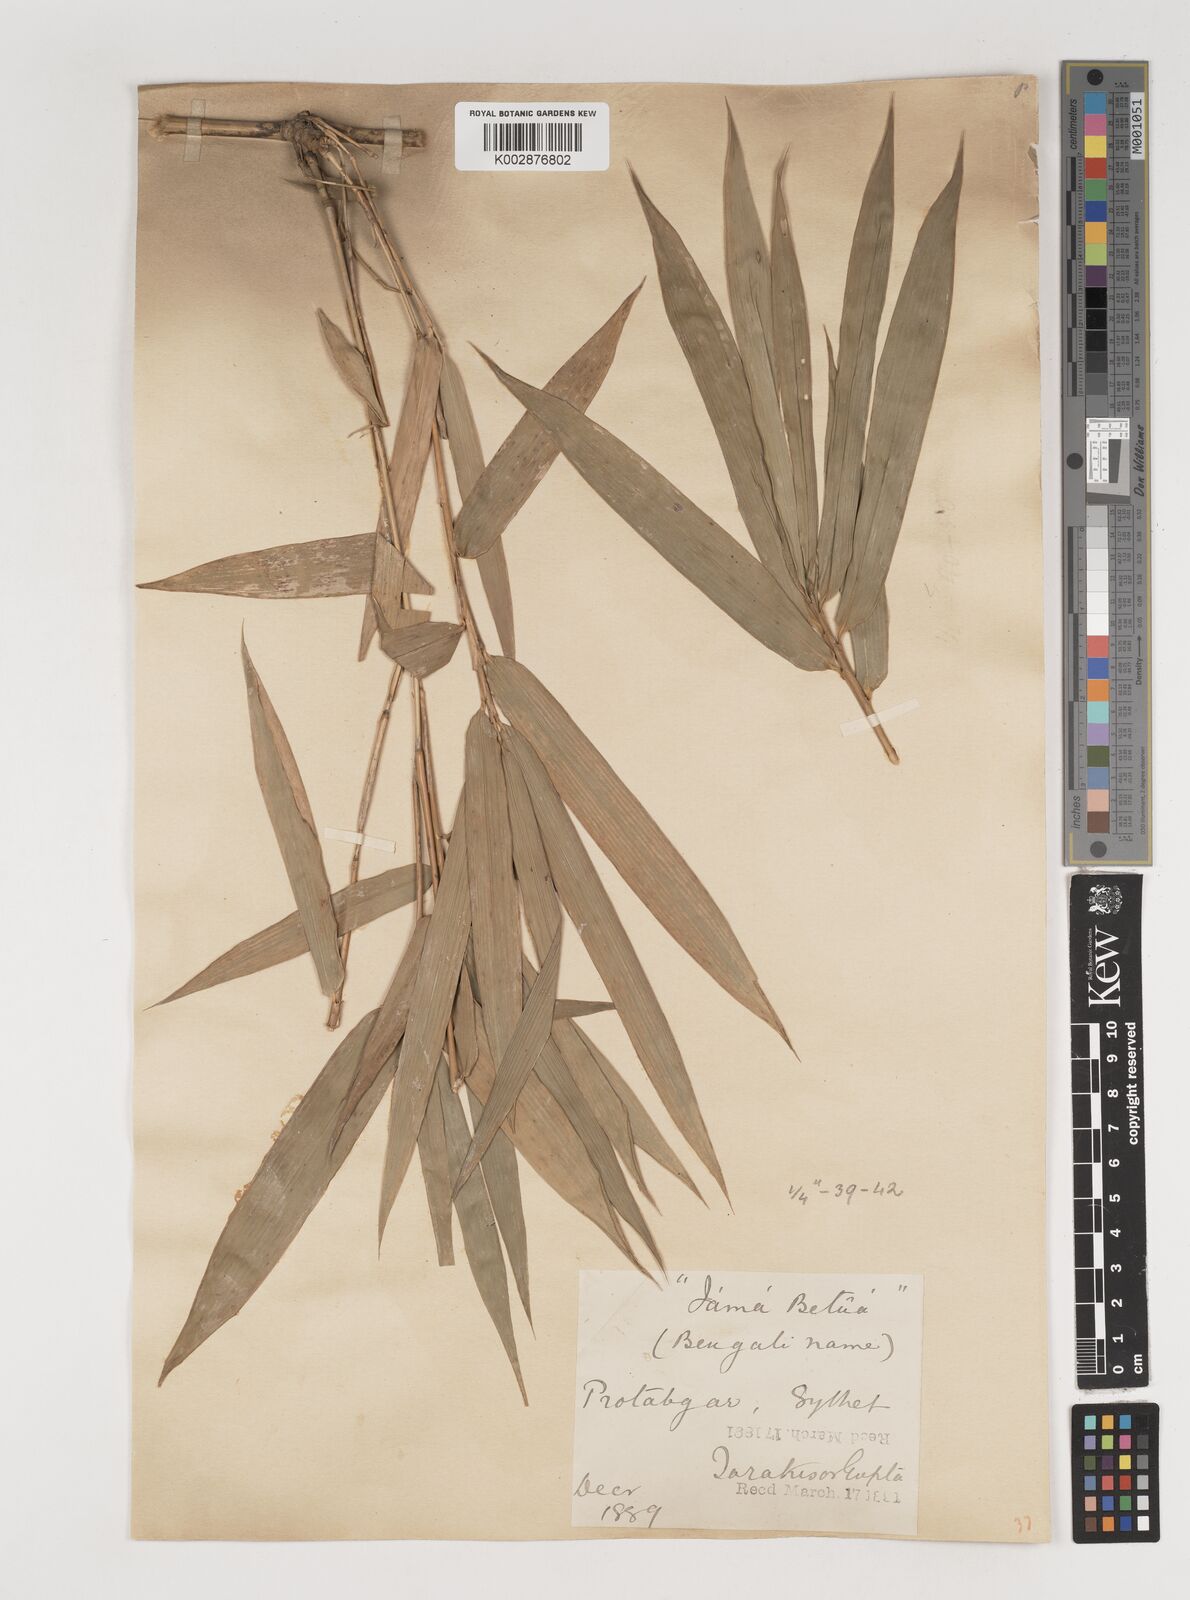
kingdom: Plantae
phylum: Tracheophyta
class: Liliopsida
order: Poales
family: Poaceae
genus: Bambusa
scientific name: Bambusa polymorpha
